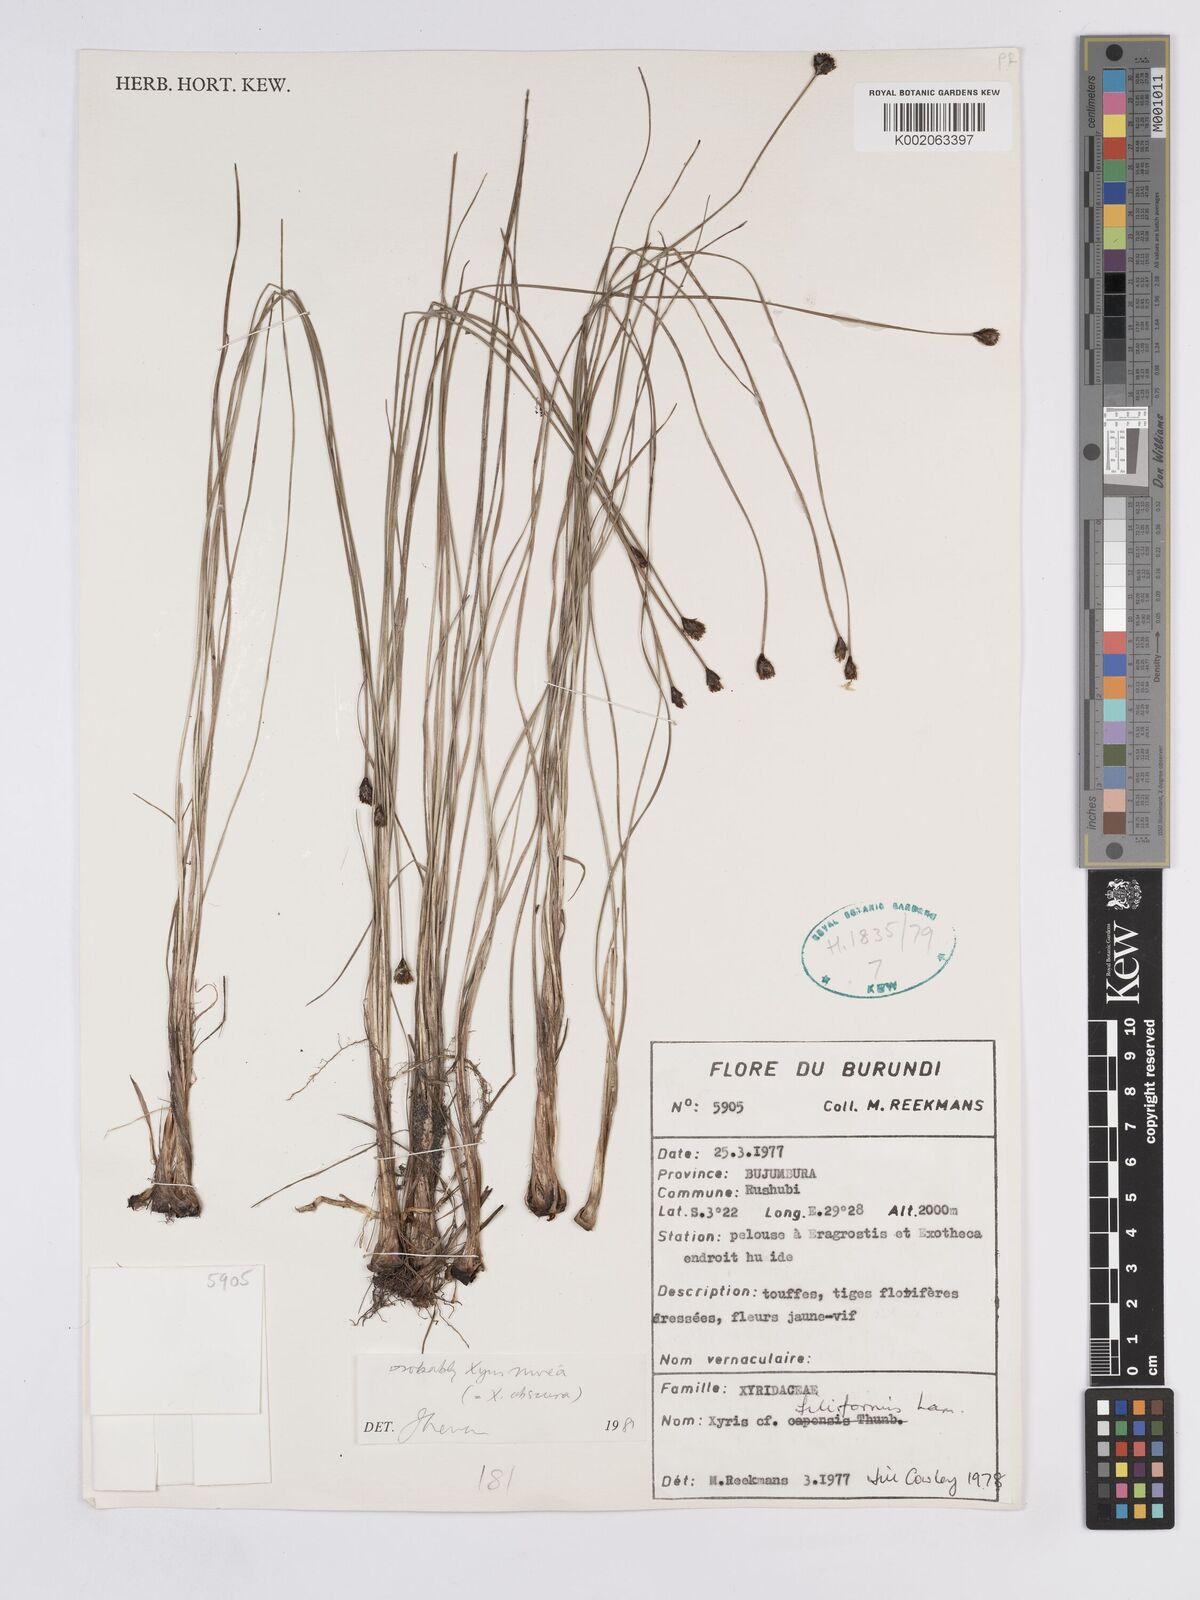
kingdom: Plantae
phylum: Tracheophyta
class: Liliopsida
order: Poales
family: Xyridaceae
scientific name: Xyridaceae
